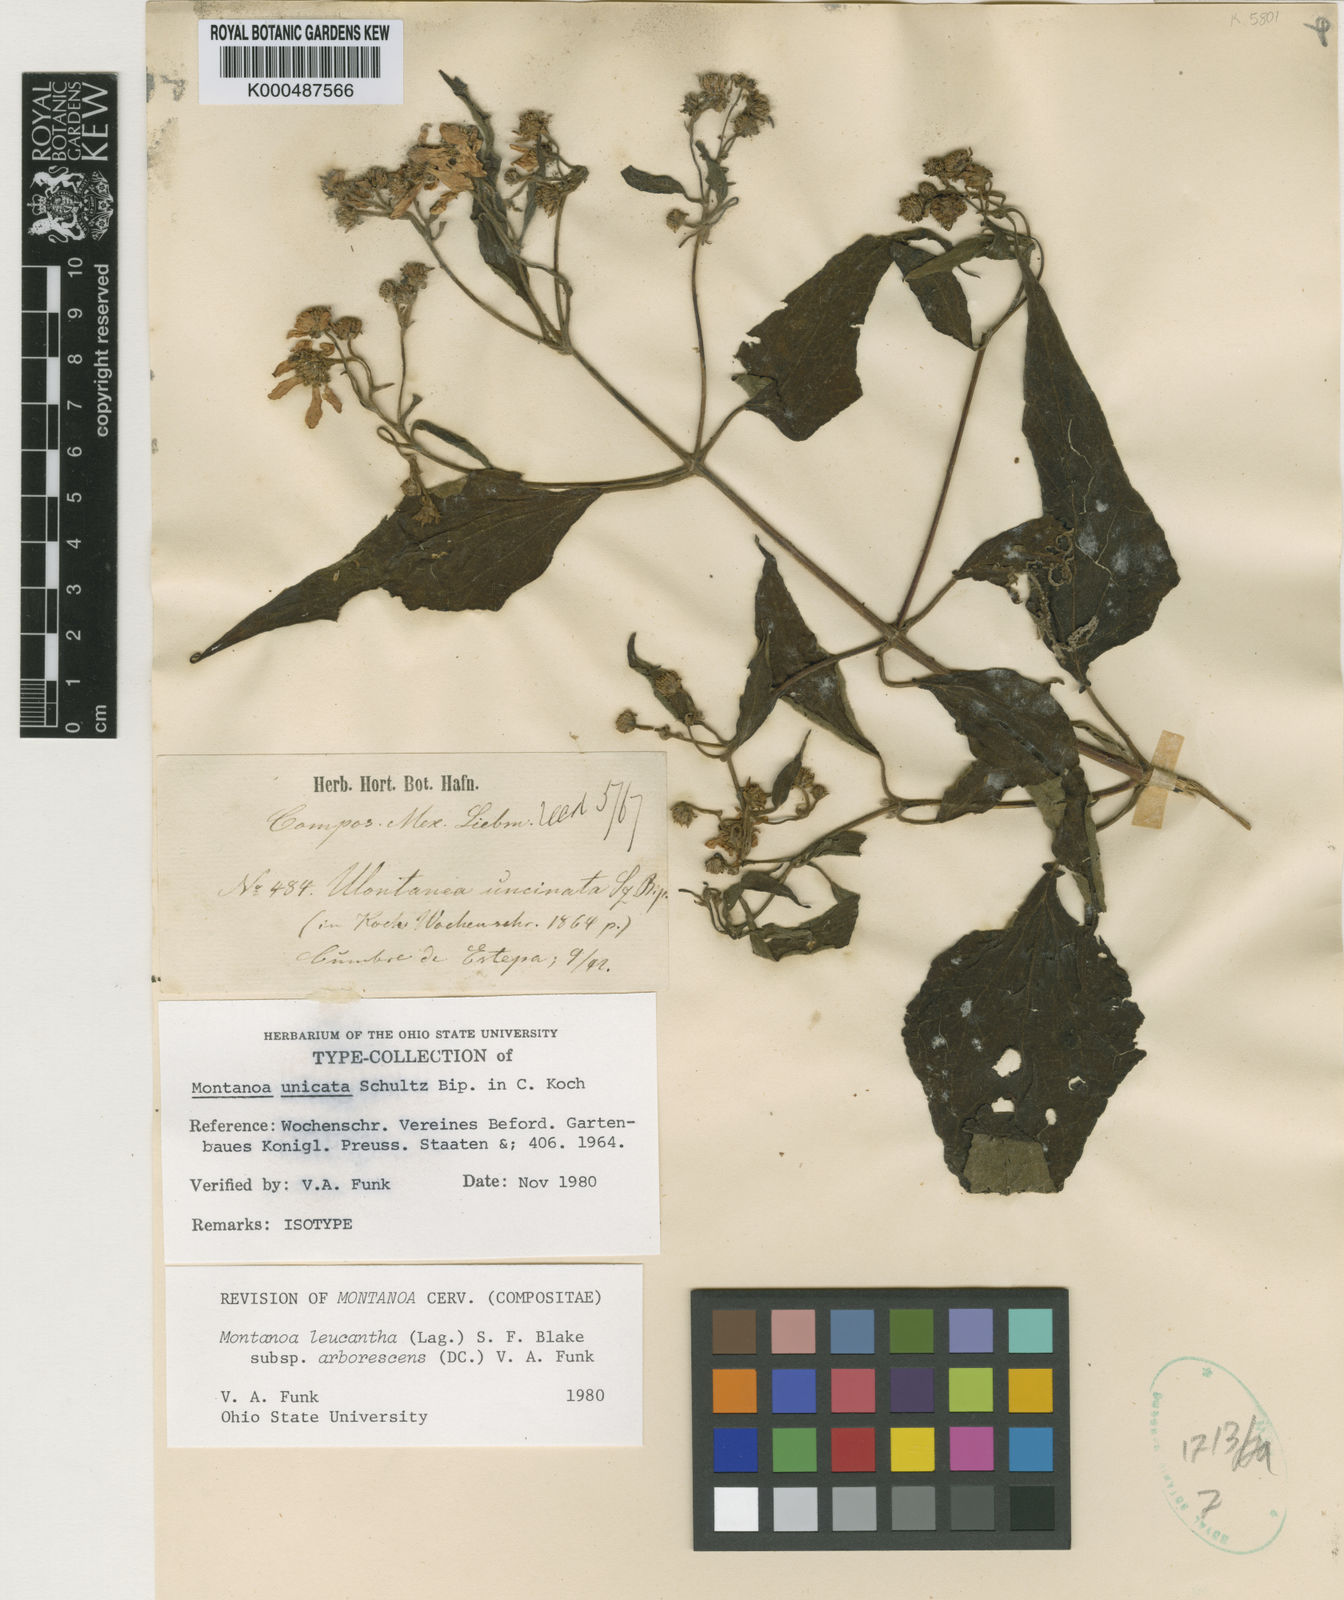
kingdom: Plantae
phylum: Tracheophyta
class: Magnoliopsida
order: Asterales
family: Asteraceae
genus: Montanoa
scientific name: Montanoa leucantha
